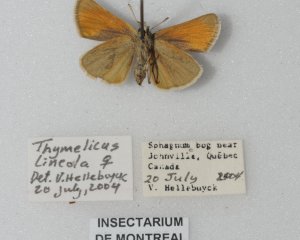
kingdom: Animalia
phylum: Arthropoda
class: Insecta
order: Lepidoptera
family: Hesperiidae
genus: Thymelicus
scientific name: Thymelicus lineola
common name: European Skipper
